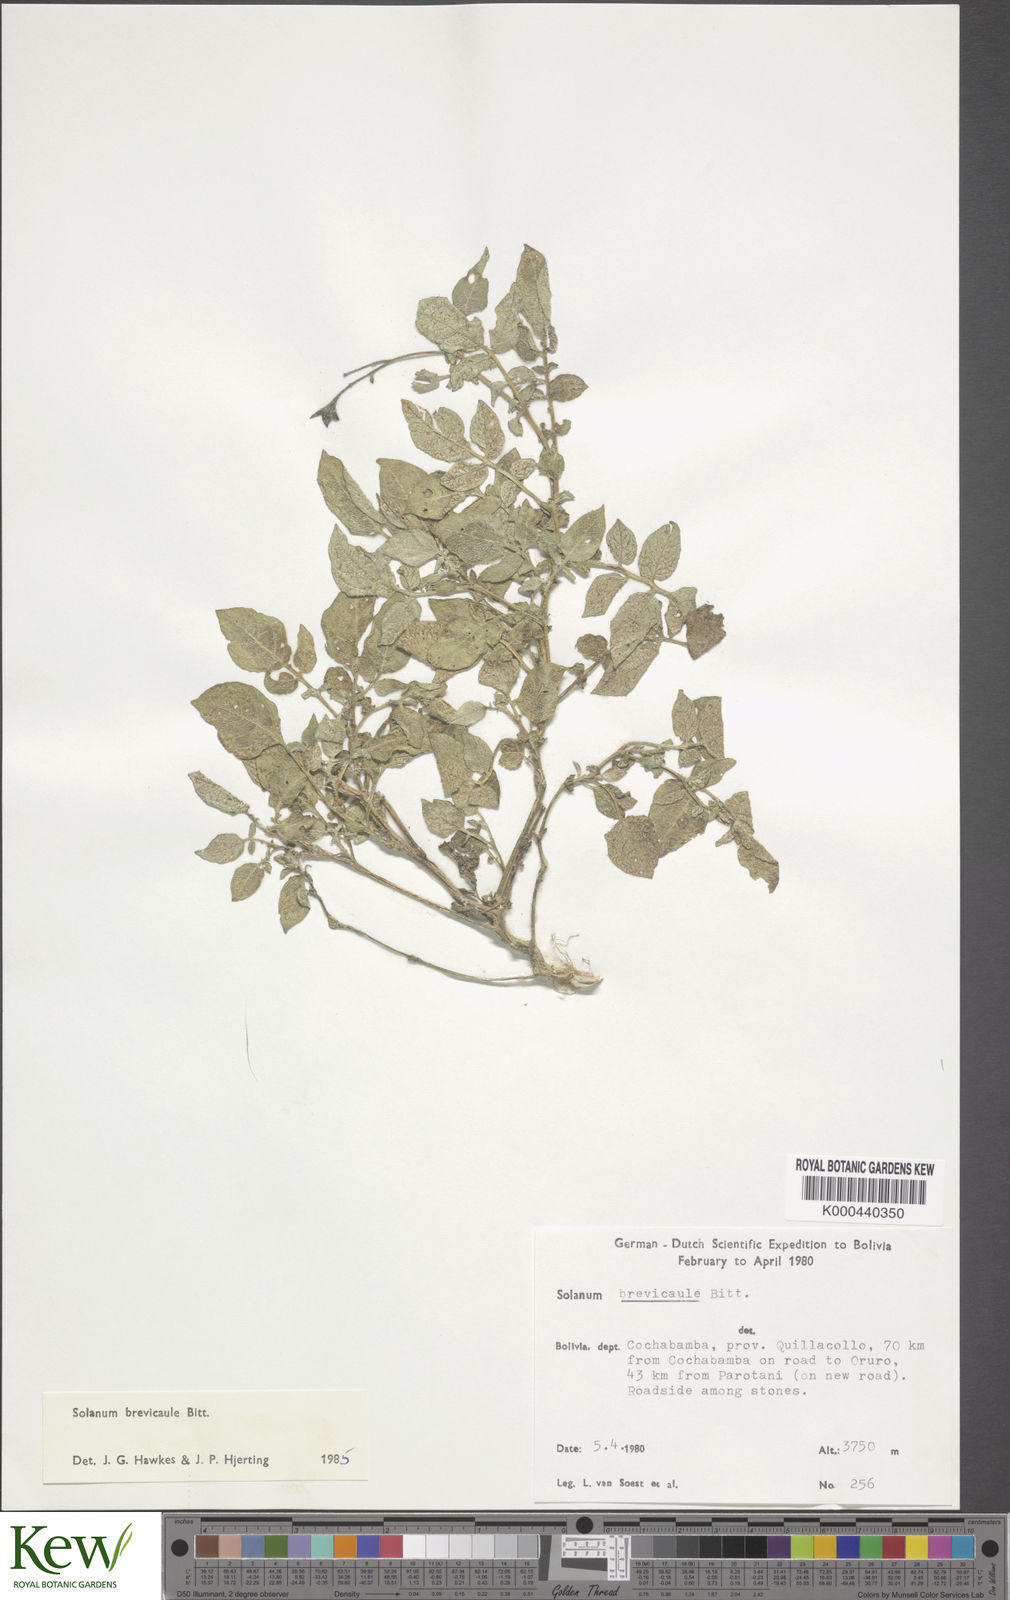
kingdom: Plantae
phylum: Tracheophyta
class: Magnoliopsida
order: Solanales
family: Solanaceae
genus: Solanum
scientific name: Solanum brevicaule
